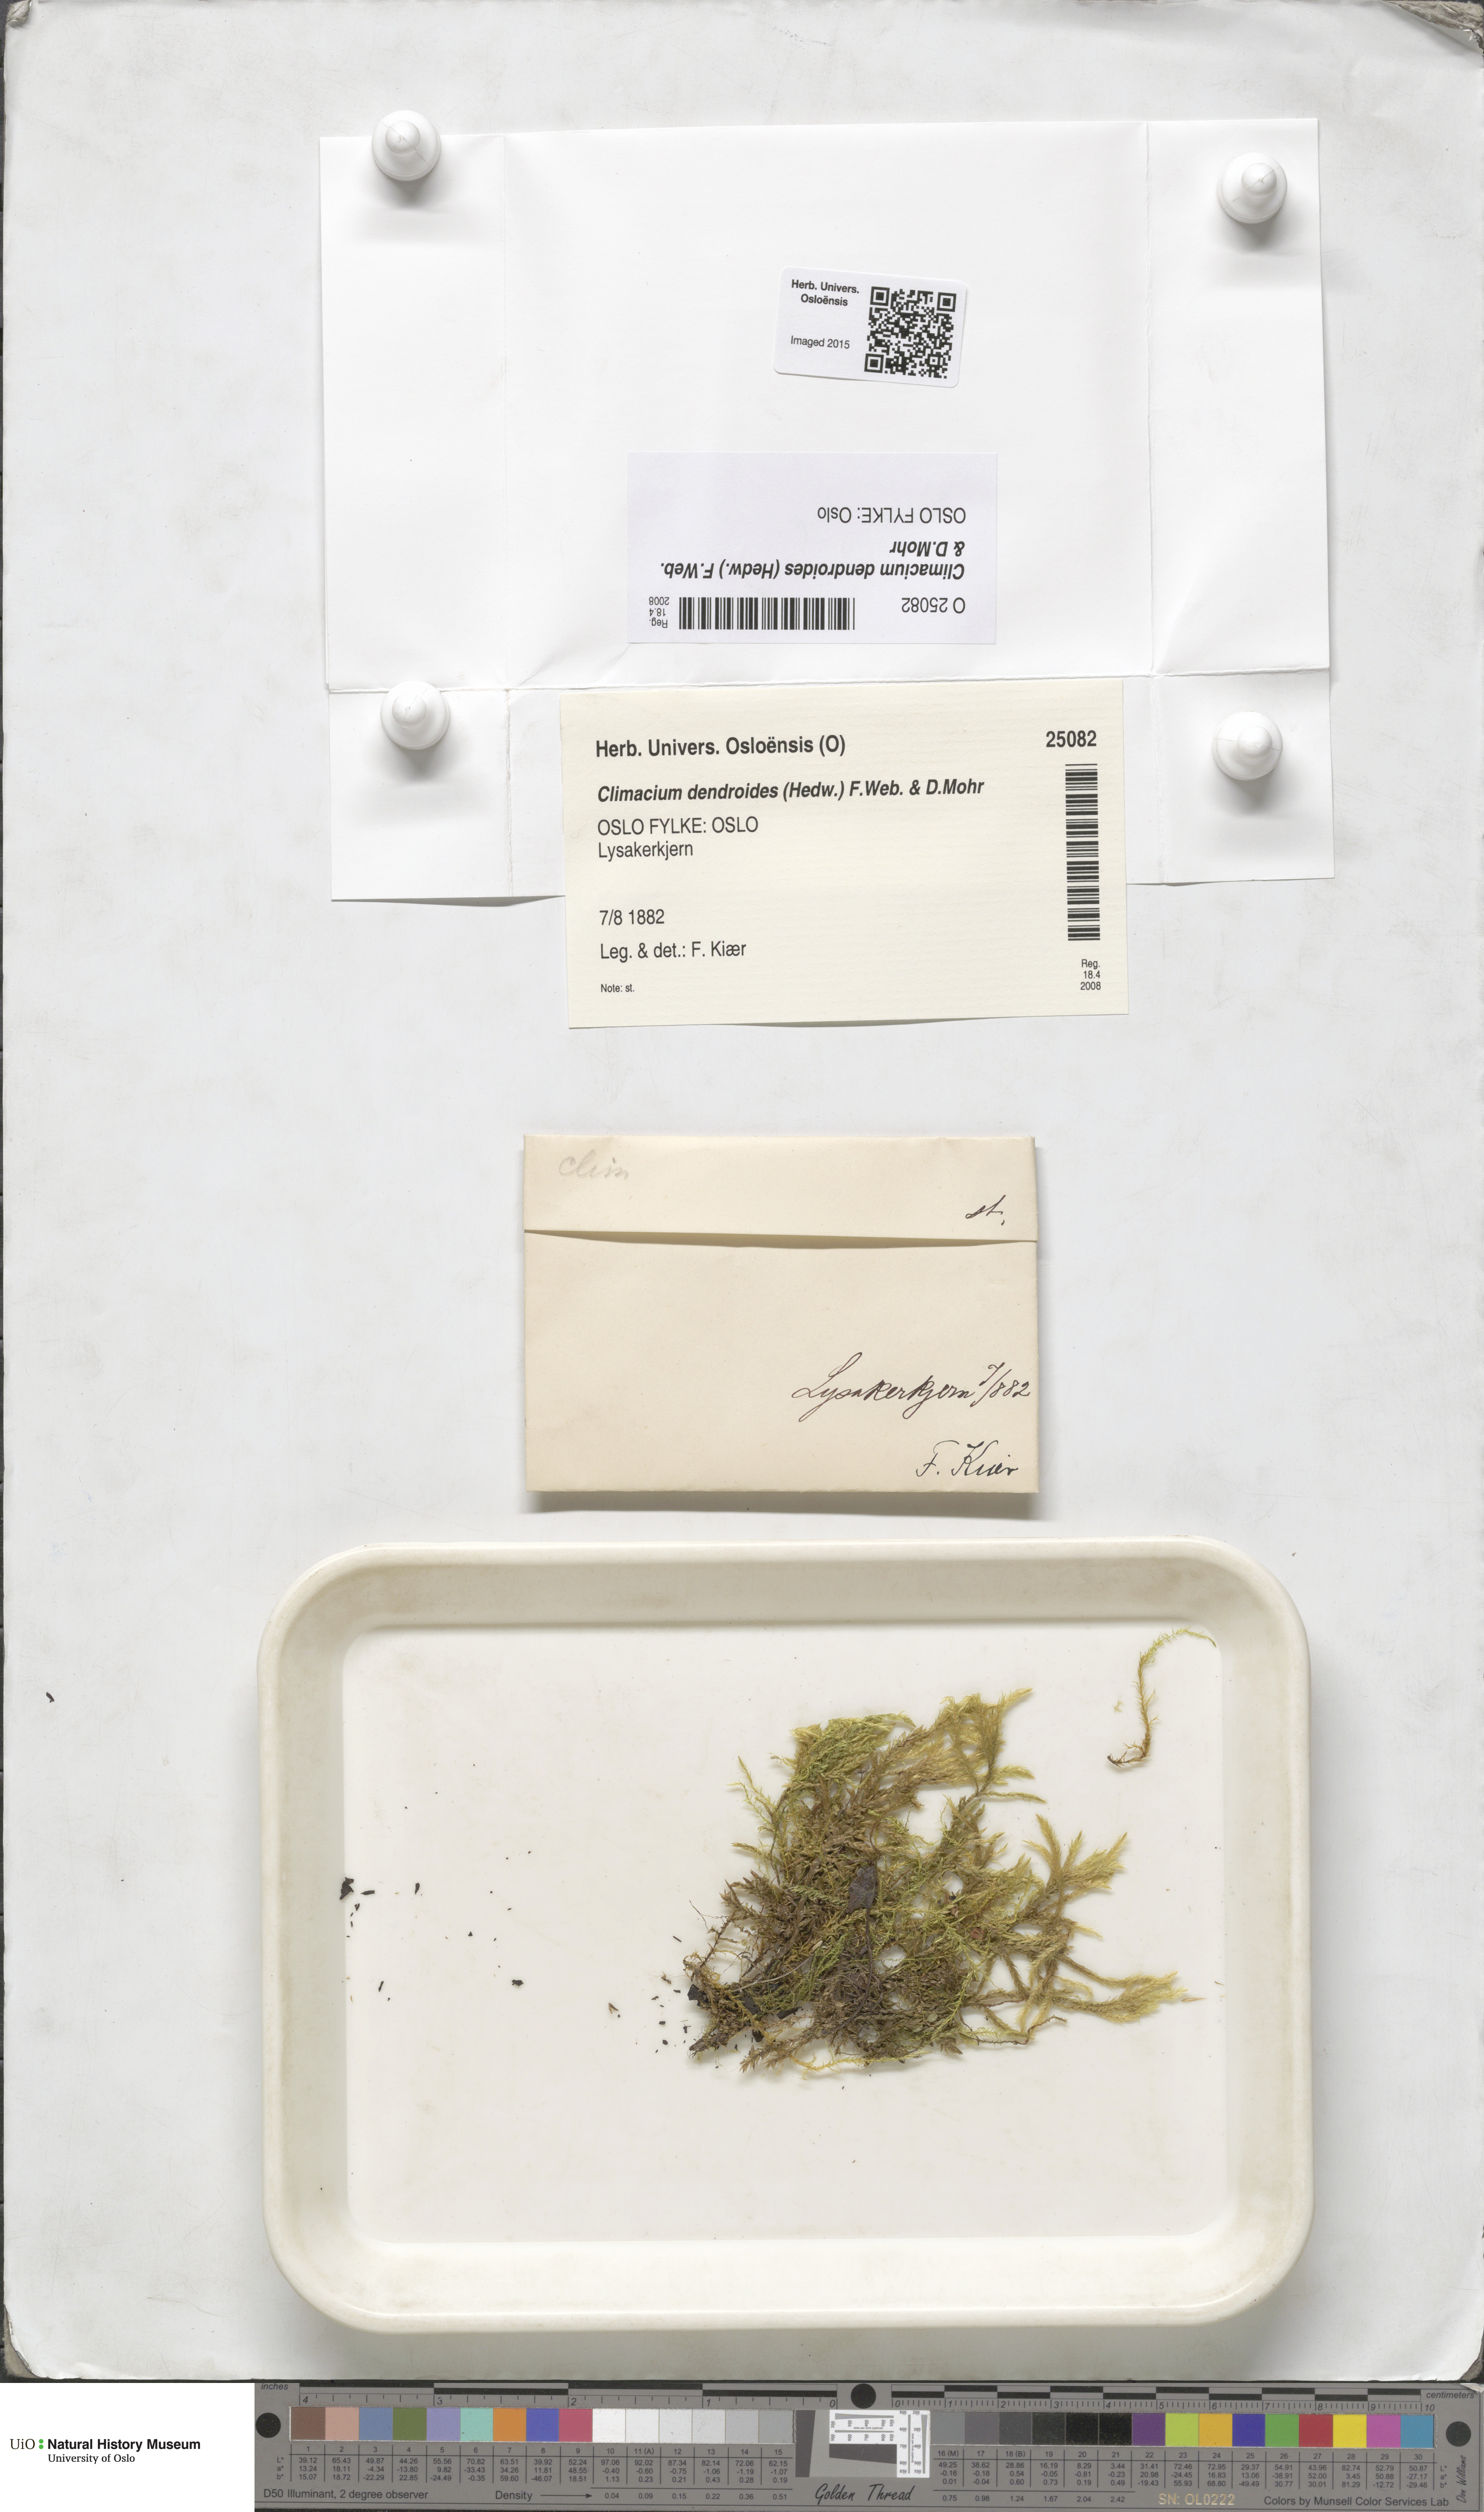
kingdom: Plantae
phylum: Bryophyta
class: Bryopsida
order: Hypnales
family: Climaciaceae
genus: Climacium
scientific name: Climacium dendroides
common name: Northern tree moss
